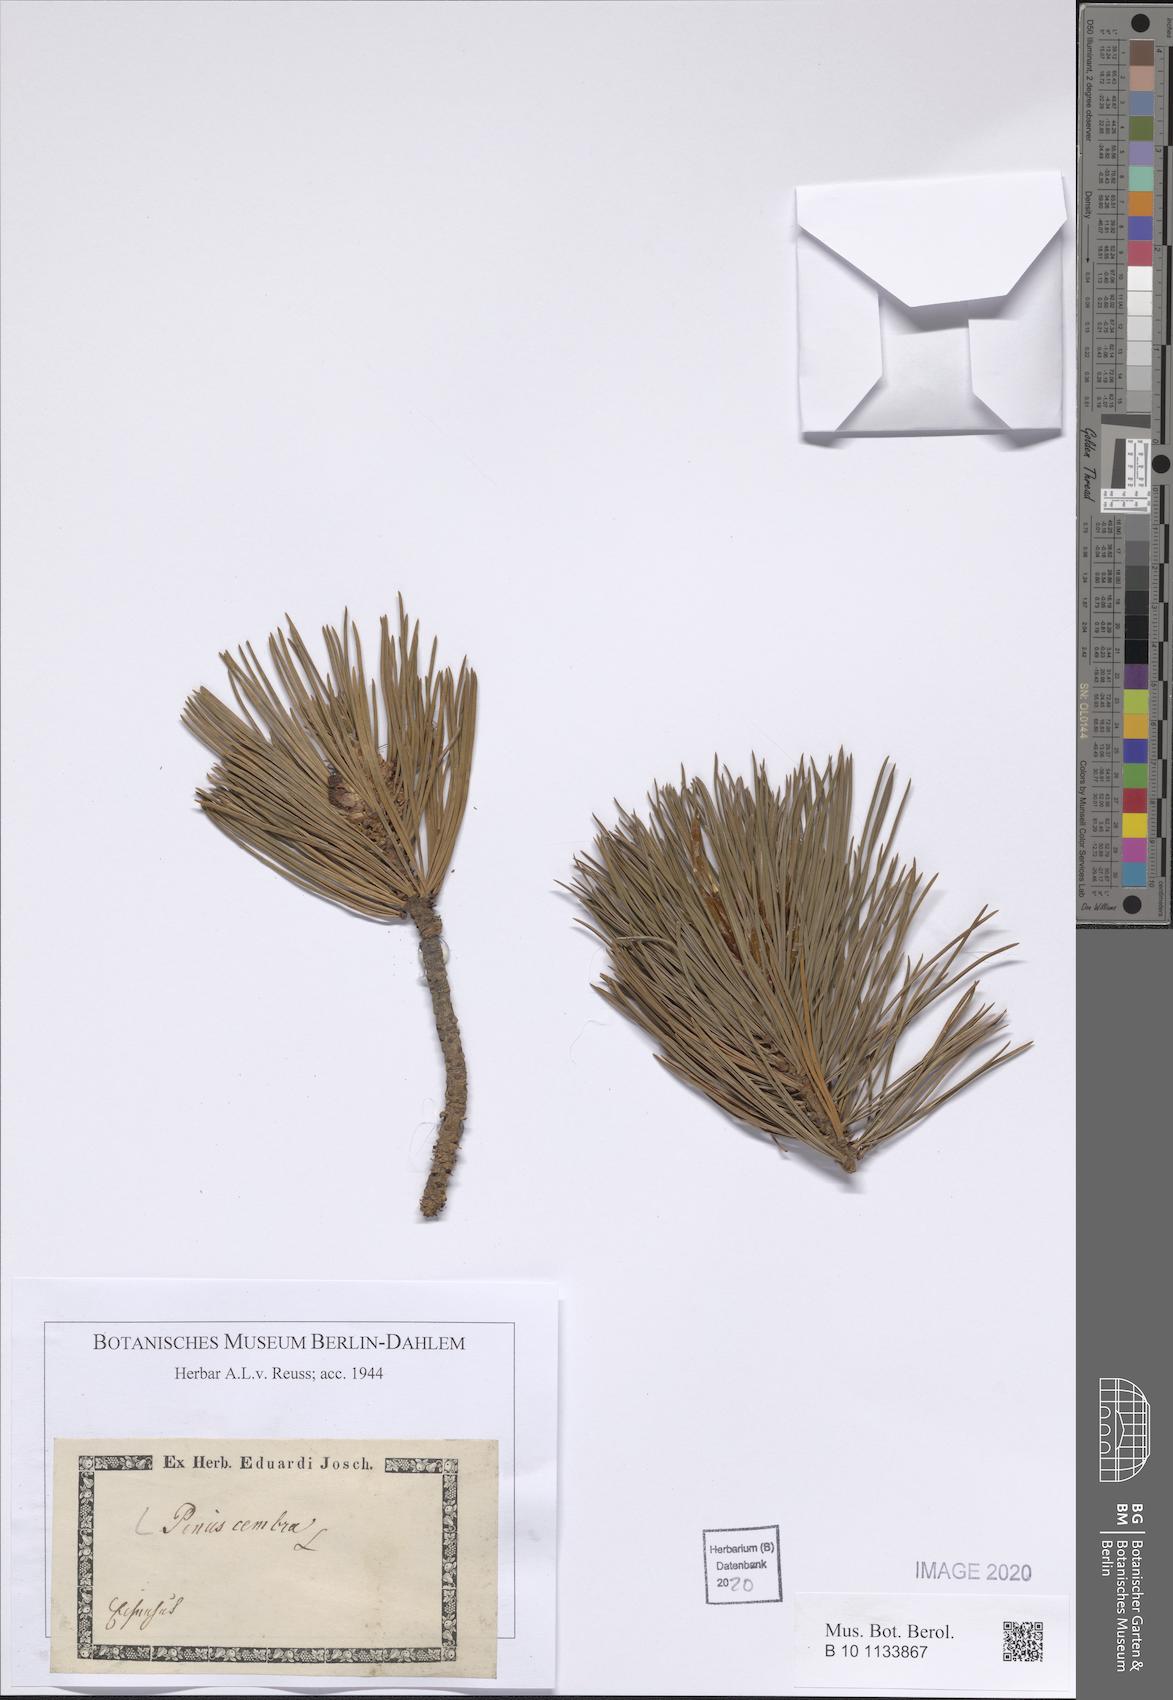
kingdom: Plantae
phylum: Tracheophyta
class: Pinopsida
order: Pinales
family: Pinaceae
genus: Pinus
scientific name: Pinus cembra
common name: Arolla pine
